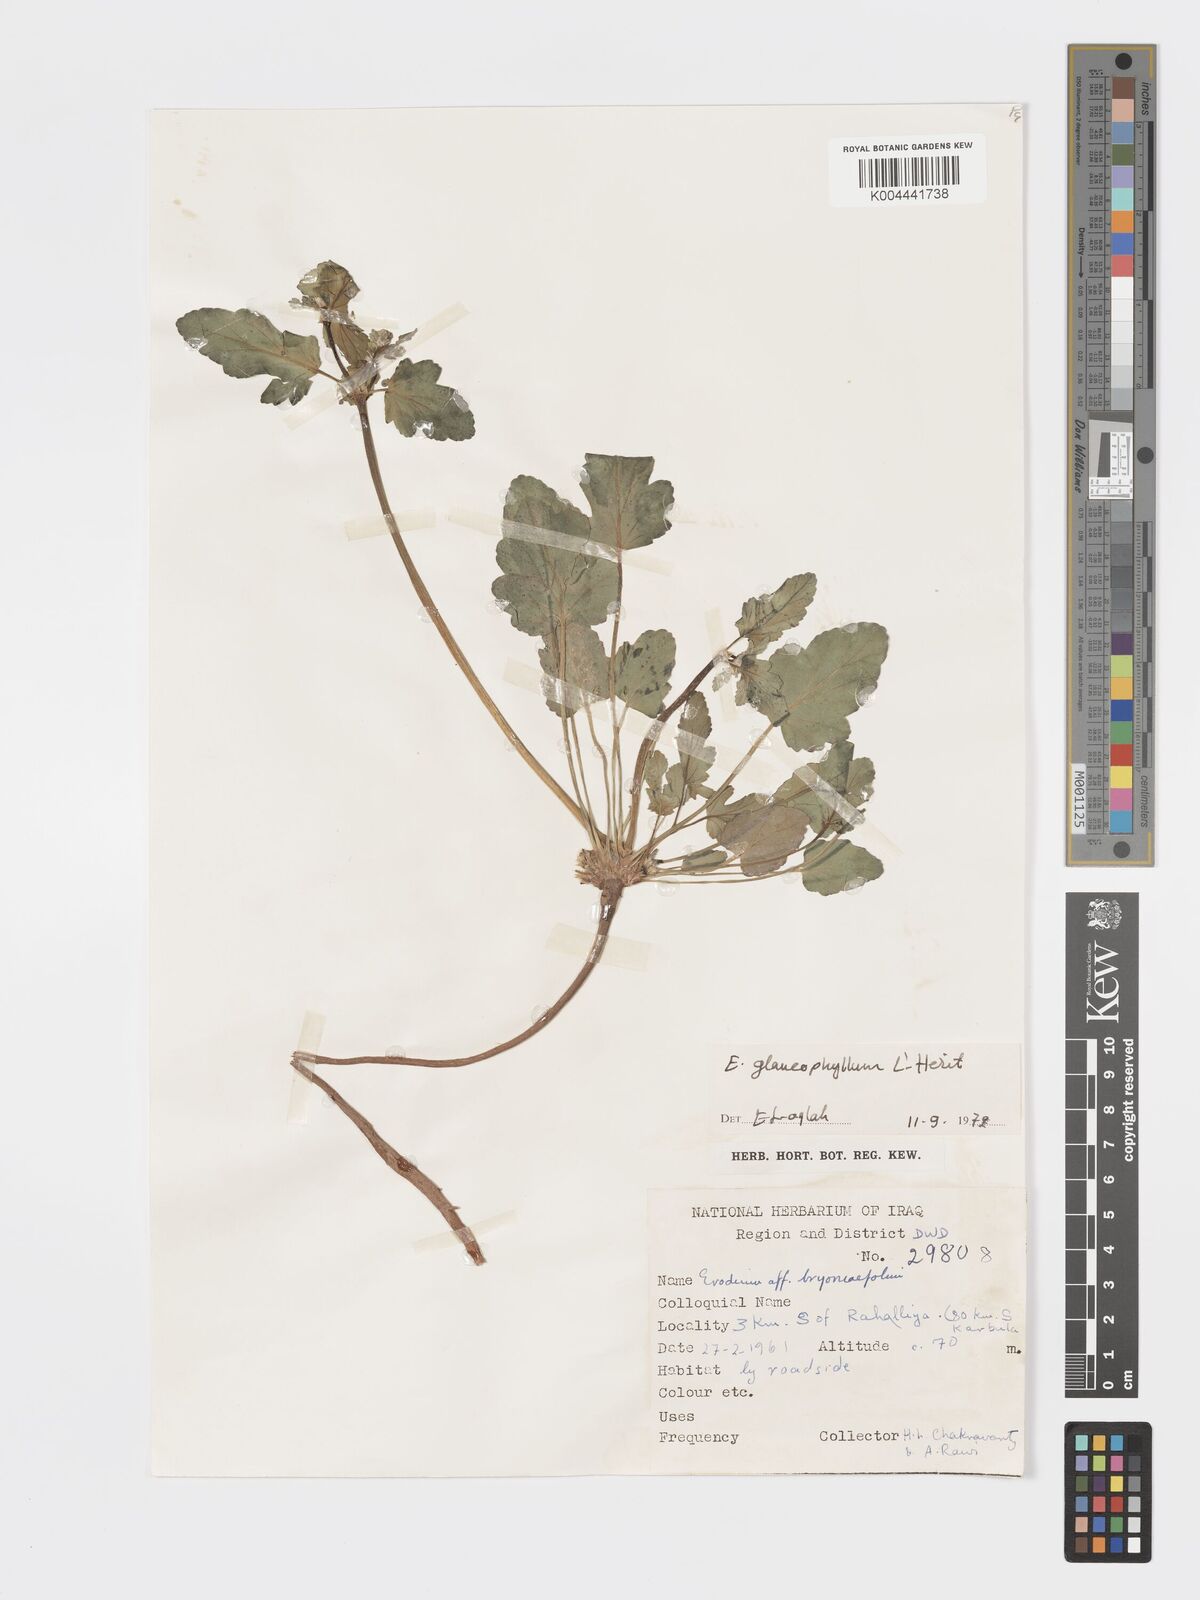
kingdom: Plantae
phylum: Tracheophyta
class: Magnoliopsida
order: Geraniales
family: Geraniaceae
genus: Erodium
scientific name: Erodium glaucophyllum
